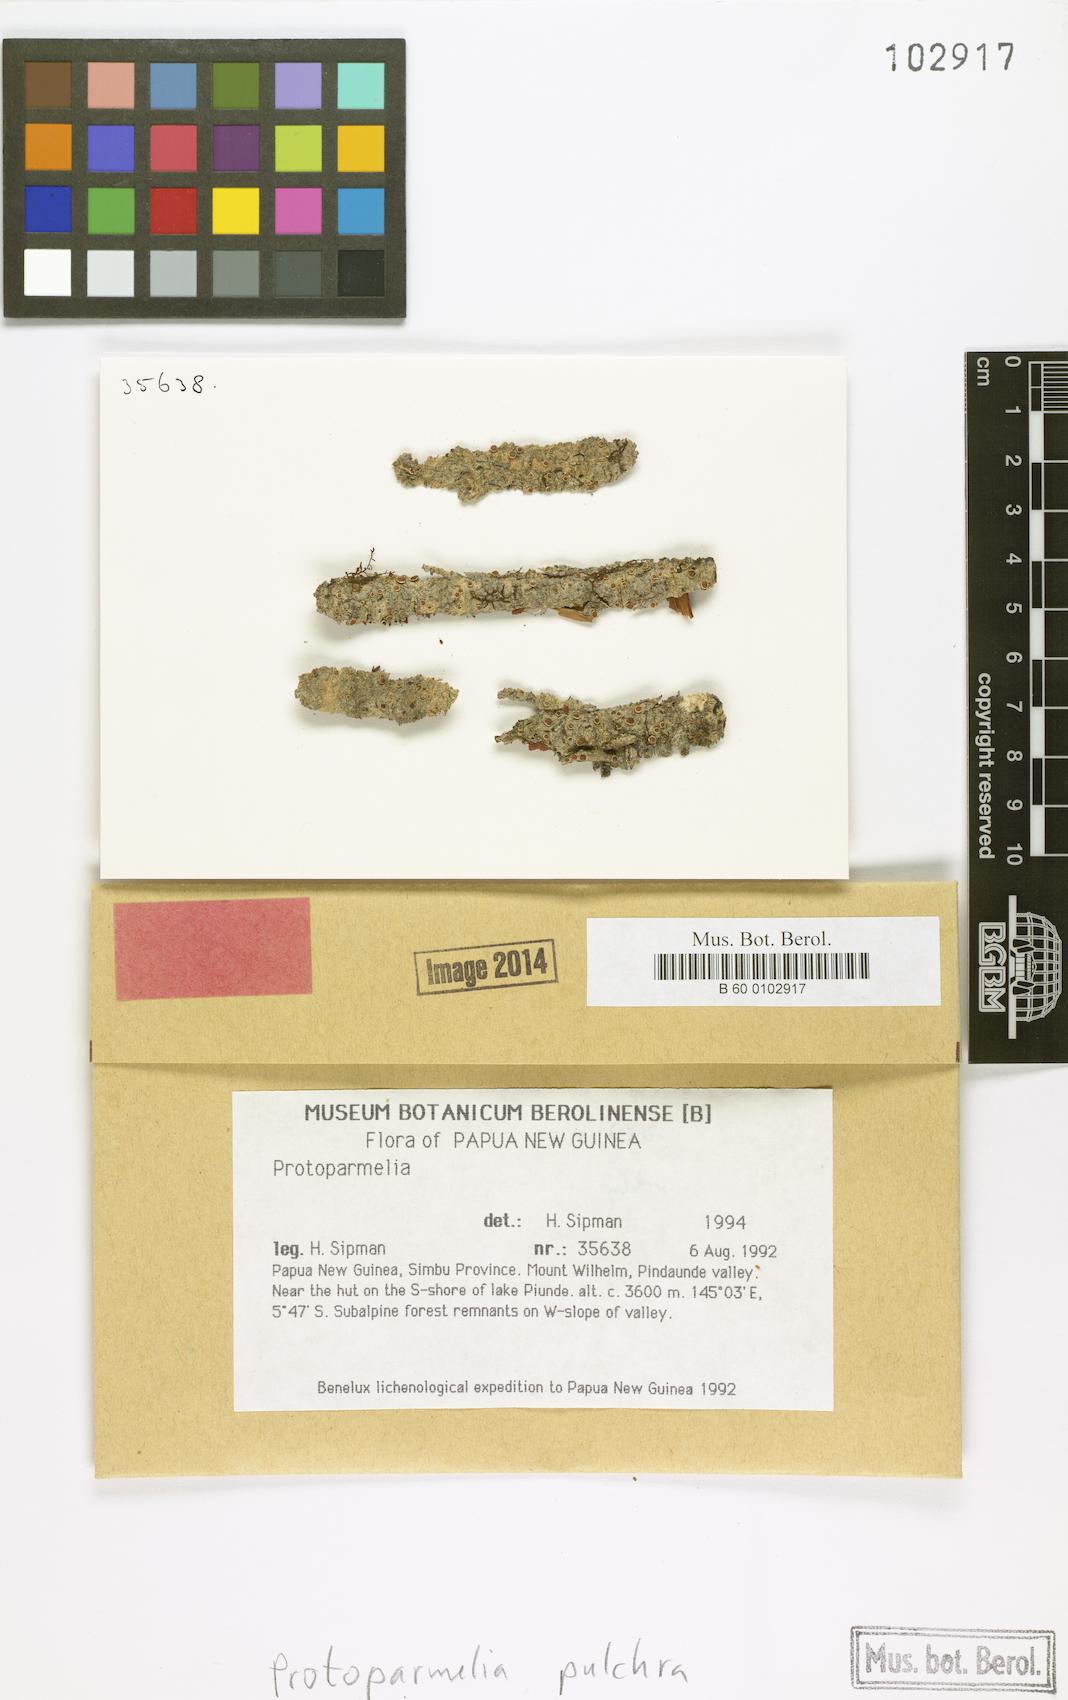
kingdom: Fungi
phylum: Ascomycota
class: Lecanoromycetes
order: Lecanorales
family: Parmeliaceae
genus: Neoprotoparmelia
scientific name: Neoprotoparmelia pulchra
